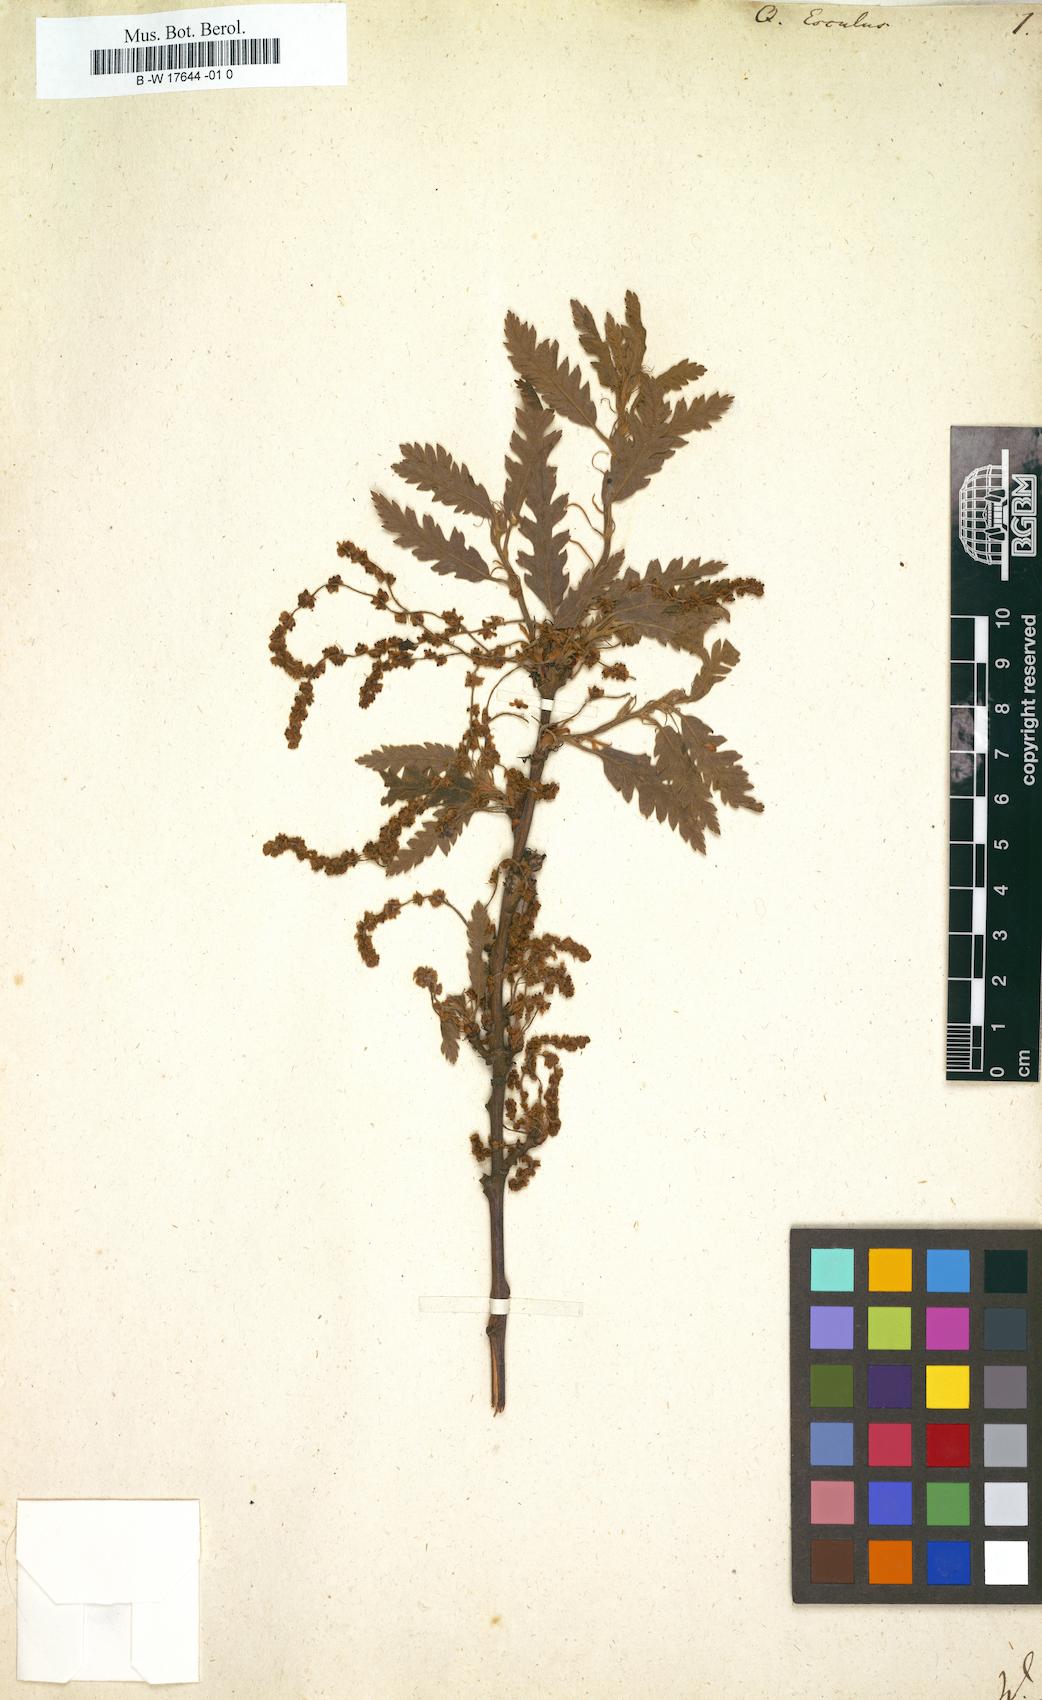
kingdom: Plantae
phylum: Tracheophyta
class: Magnoliopsida
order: Fagales
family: Fagaceae
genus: Quercus
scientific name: Quercus conferta
